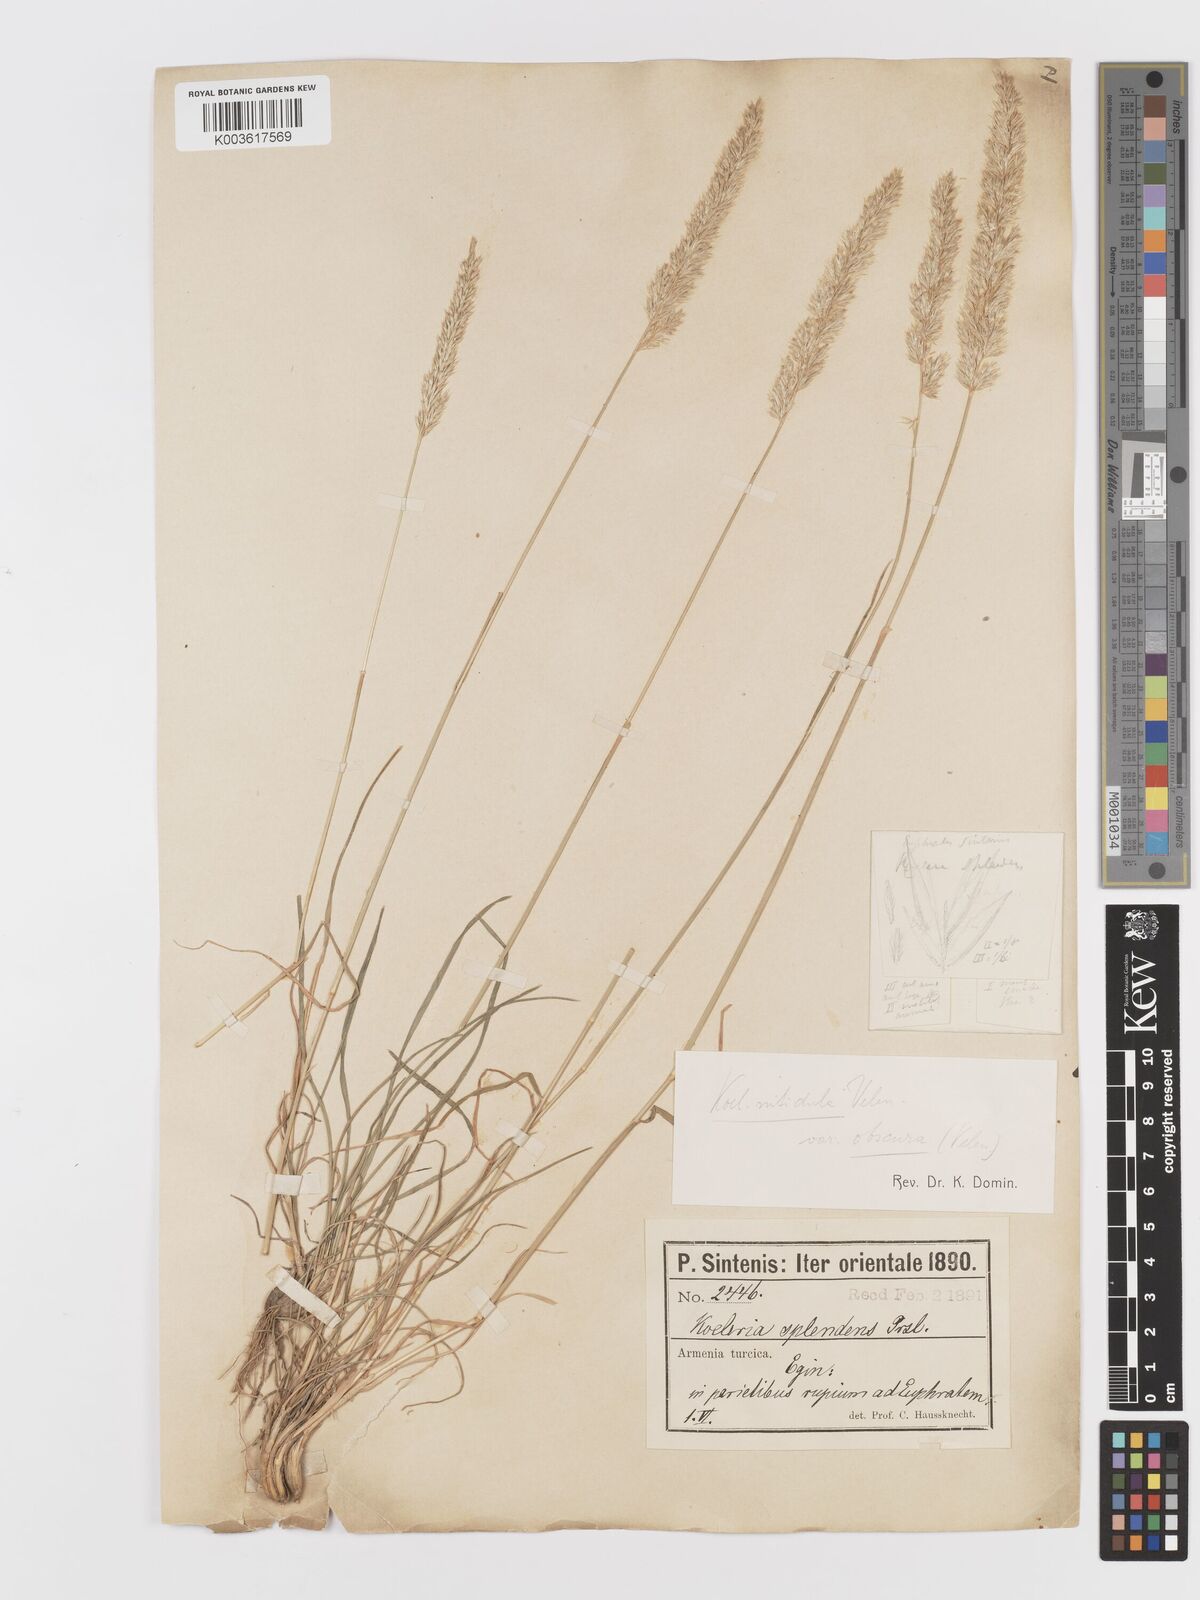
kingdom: Plantae
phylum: Tracheophyta
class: Liliopsida
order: Poales
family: Poaceae
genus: Koeleria
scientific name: Koeleria nitidula
